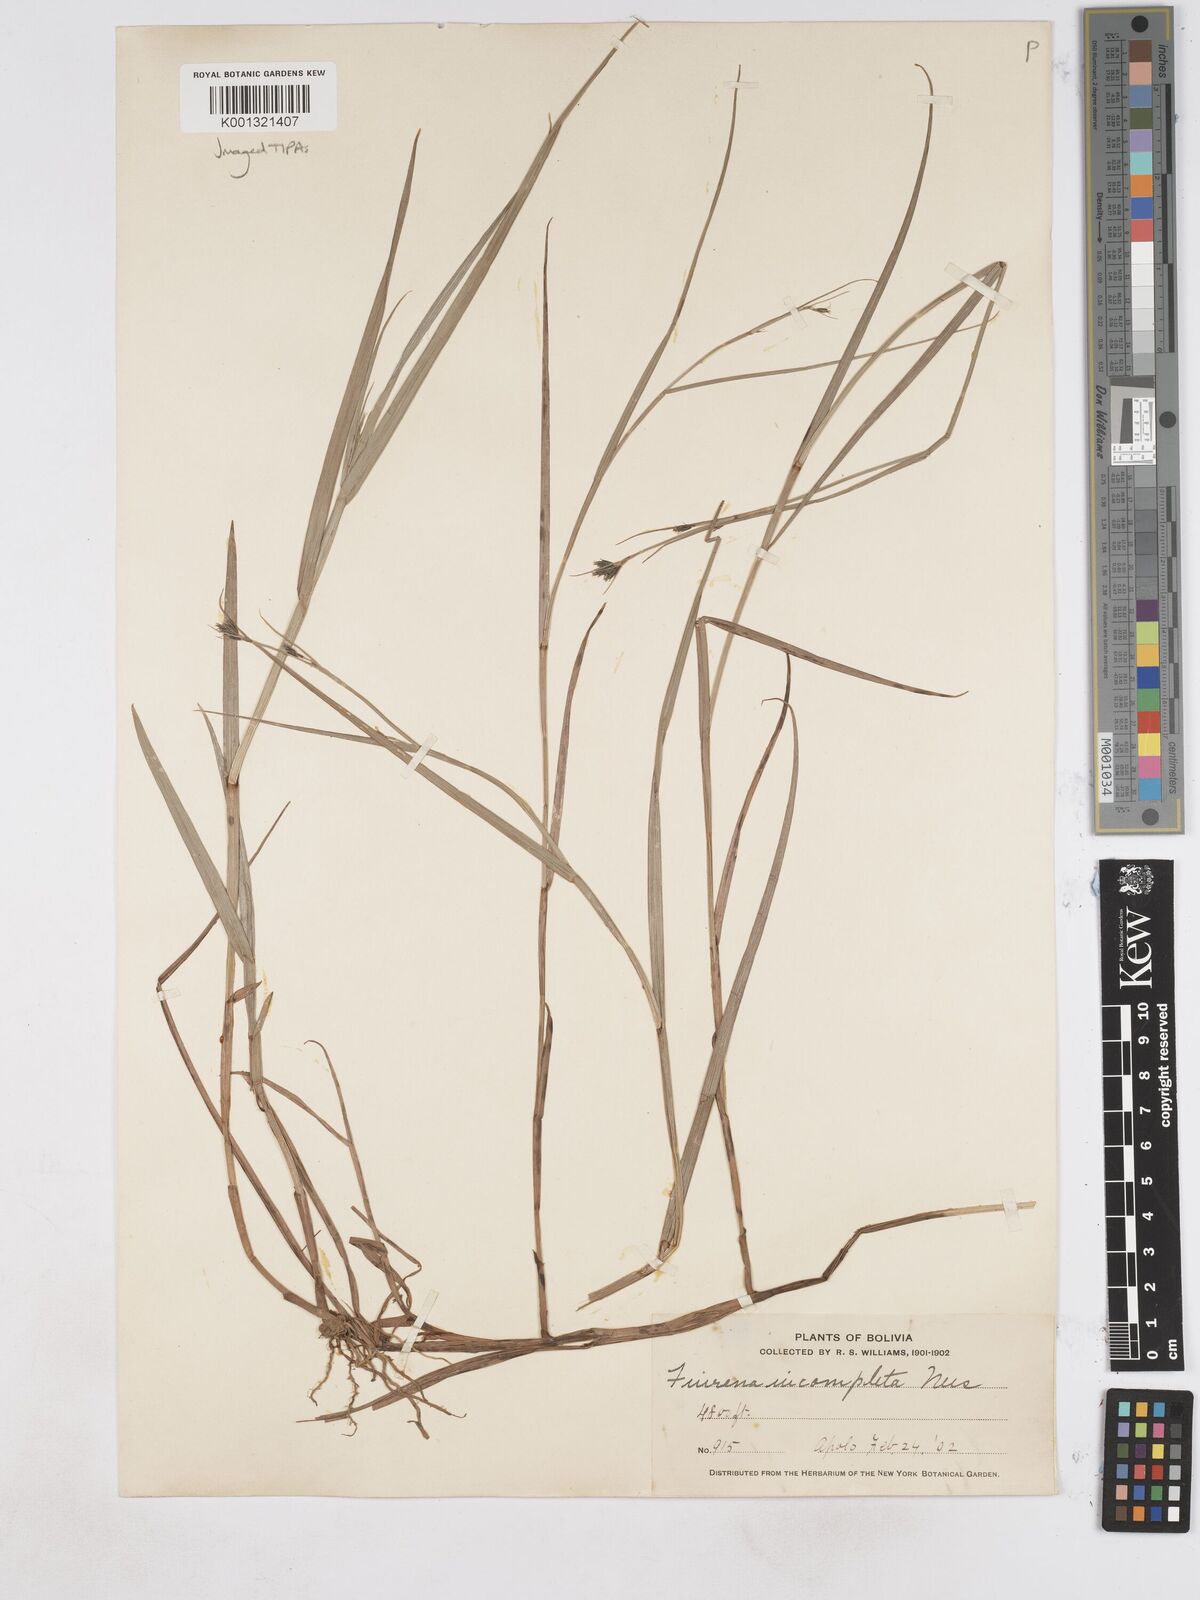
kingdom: Plantae
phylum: Tracheophyta
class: Liliopsida
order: Poales
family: Cyperaceae
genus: Fuirena
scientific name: Fuirena incompleta
